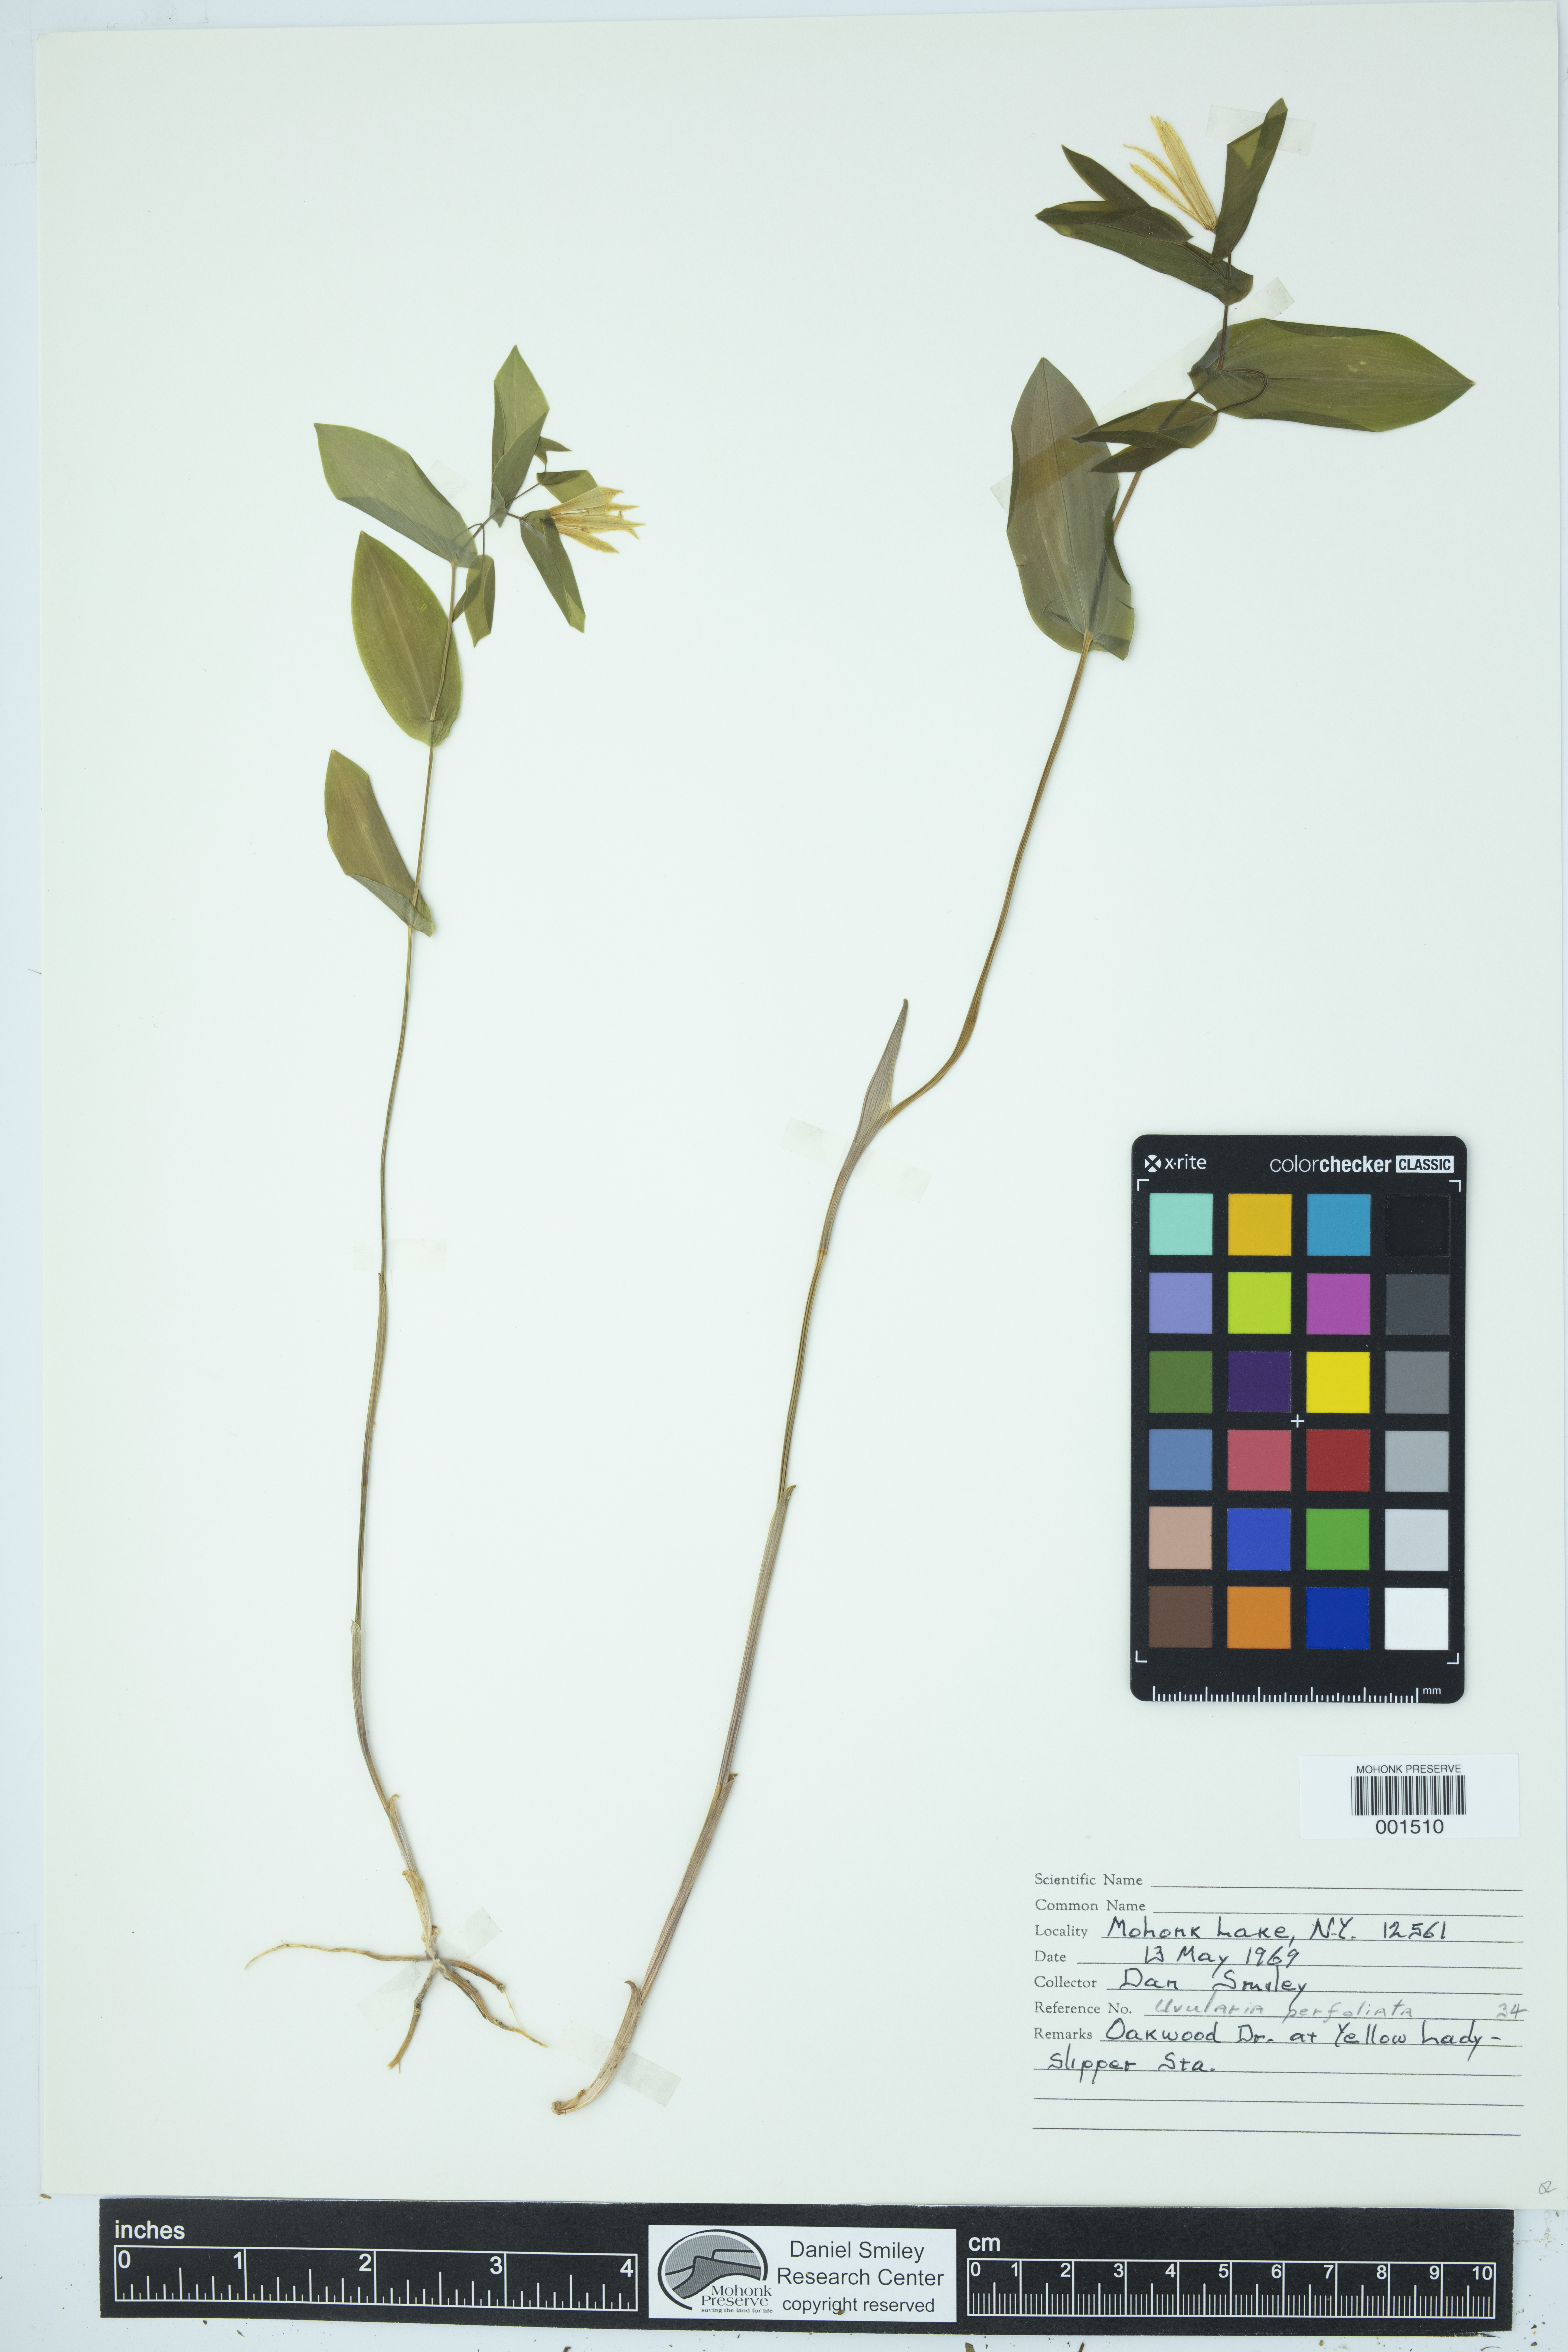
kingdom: Plantae
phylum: Tracheophyta
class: Liliopsida
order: Liliales
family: Colchicaceae
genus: Uvularia
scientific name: Uvularia perfoliata
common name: Perfoliate bellwort
